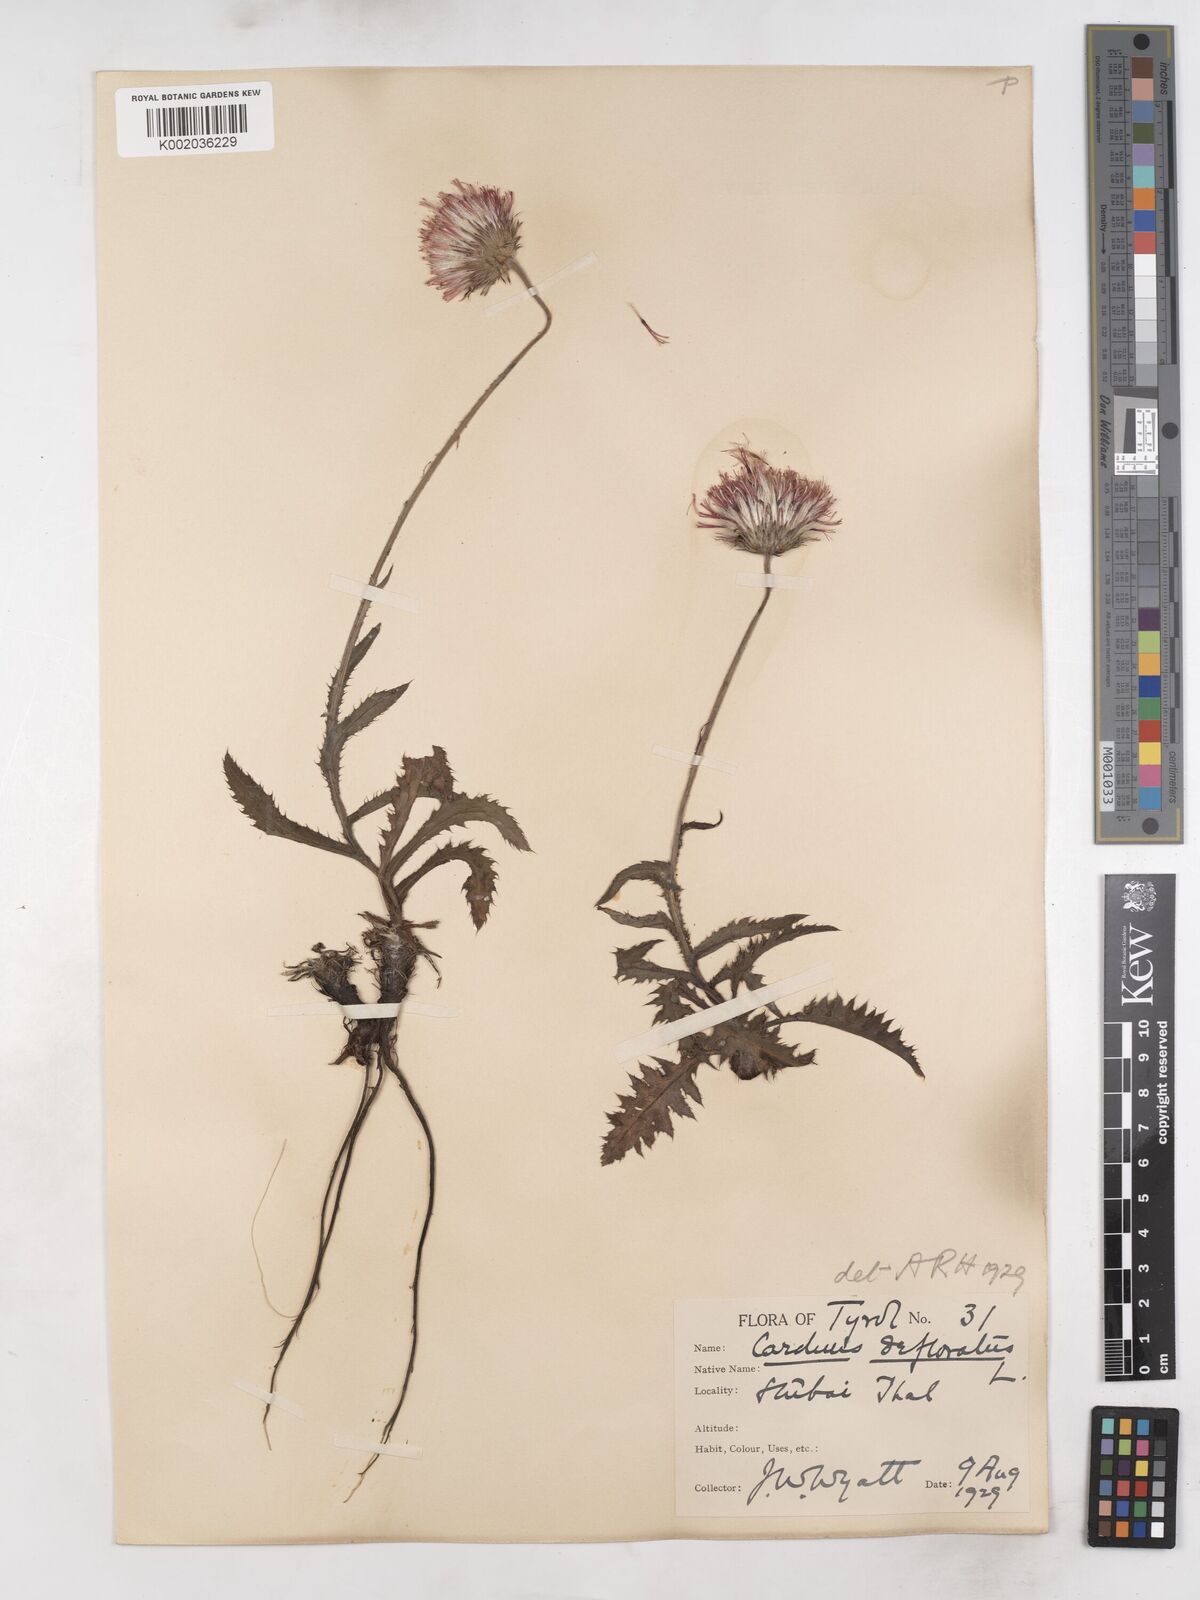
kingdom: Plantae
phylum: Tracheophyta
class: Magnoliopsida
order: Asterales
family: Asteraceae
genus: Carduus
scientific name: Carduus defloratus
